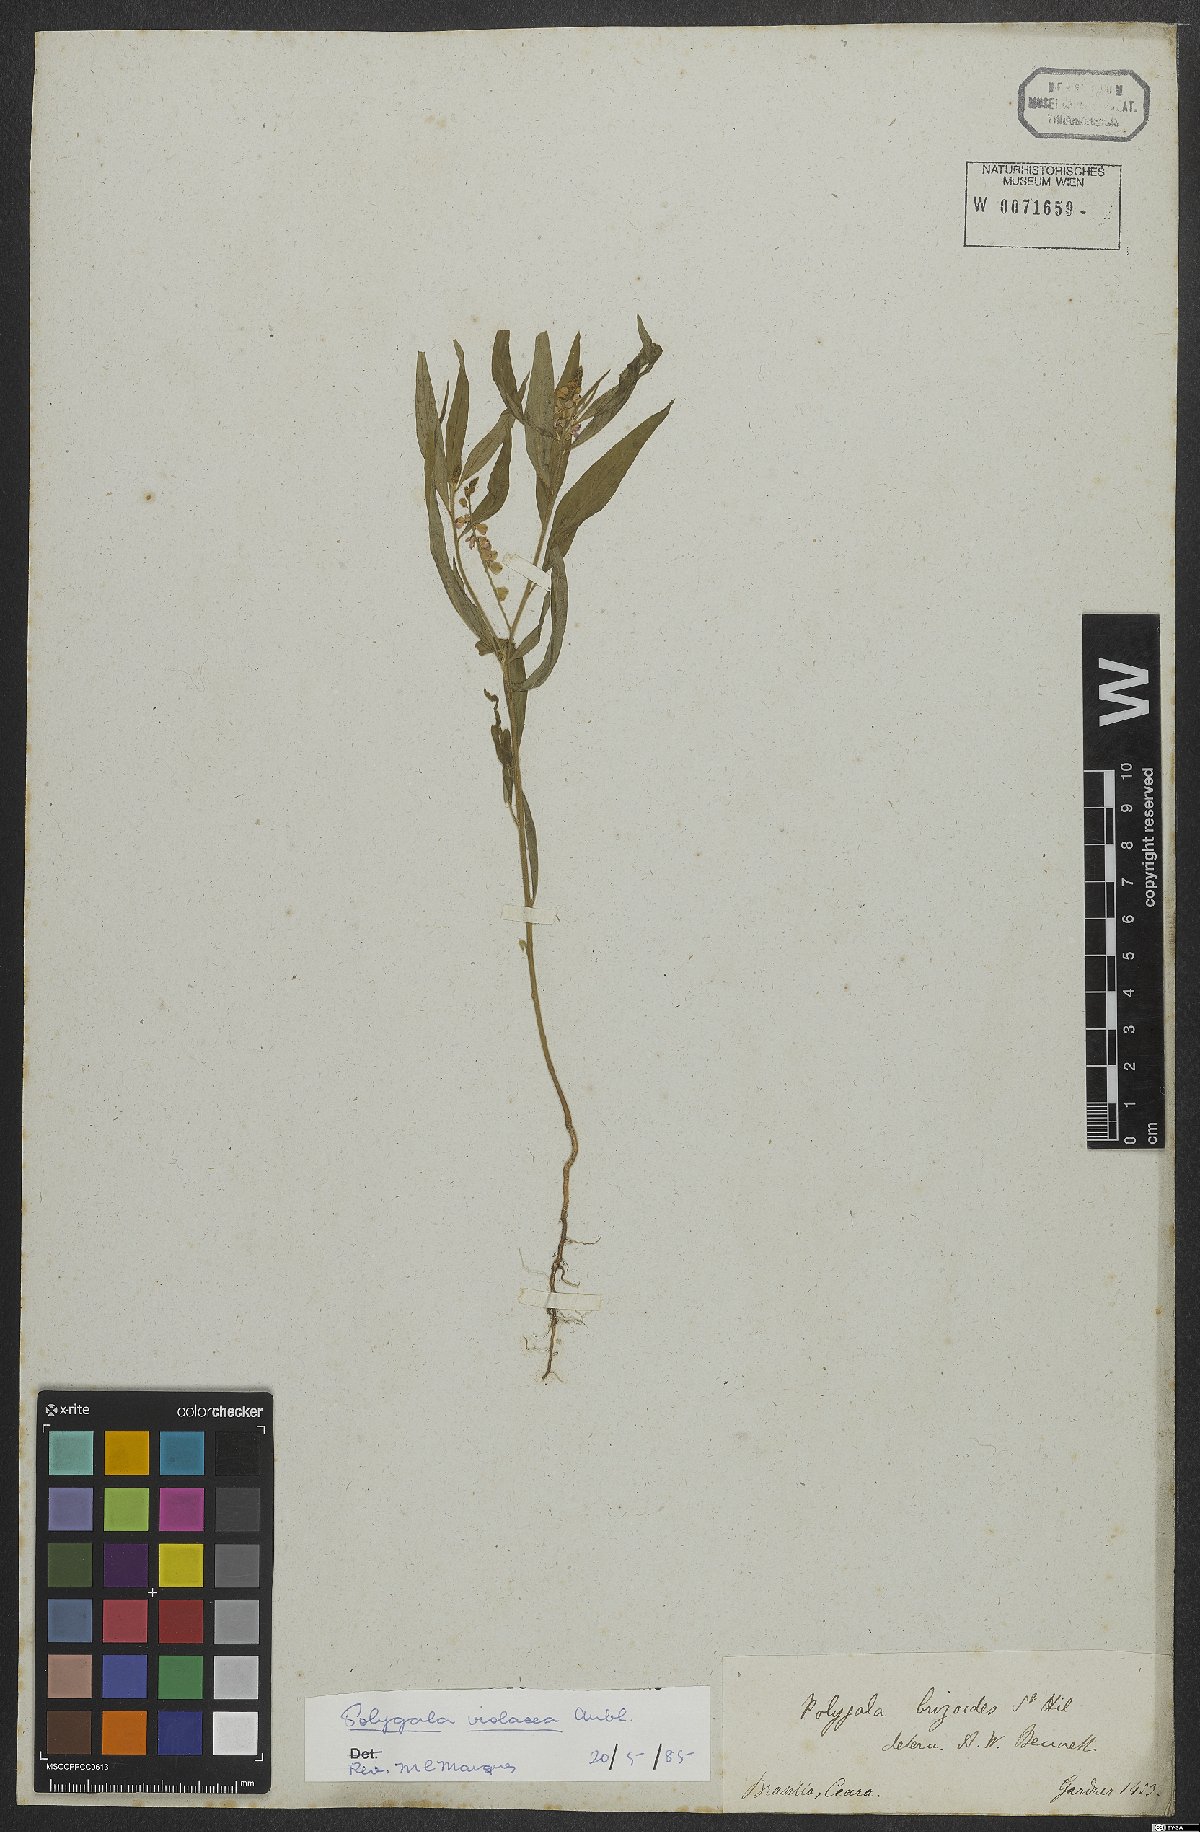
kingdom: Plantae
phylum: Tracheophyta
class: Magnoliopsida
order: Fabales
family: Polygalaceae
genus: Asemeia
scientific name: Asemeia violacea
